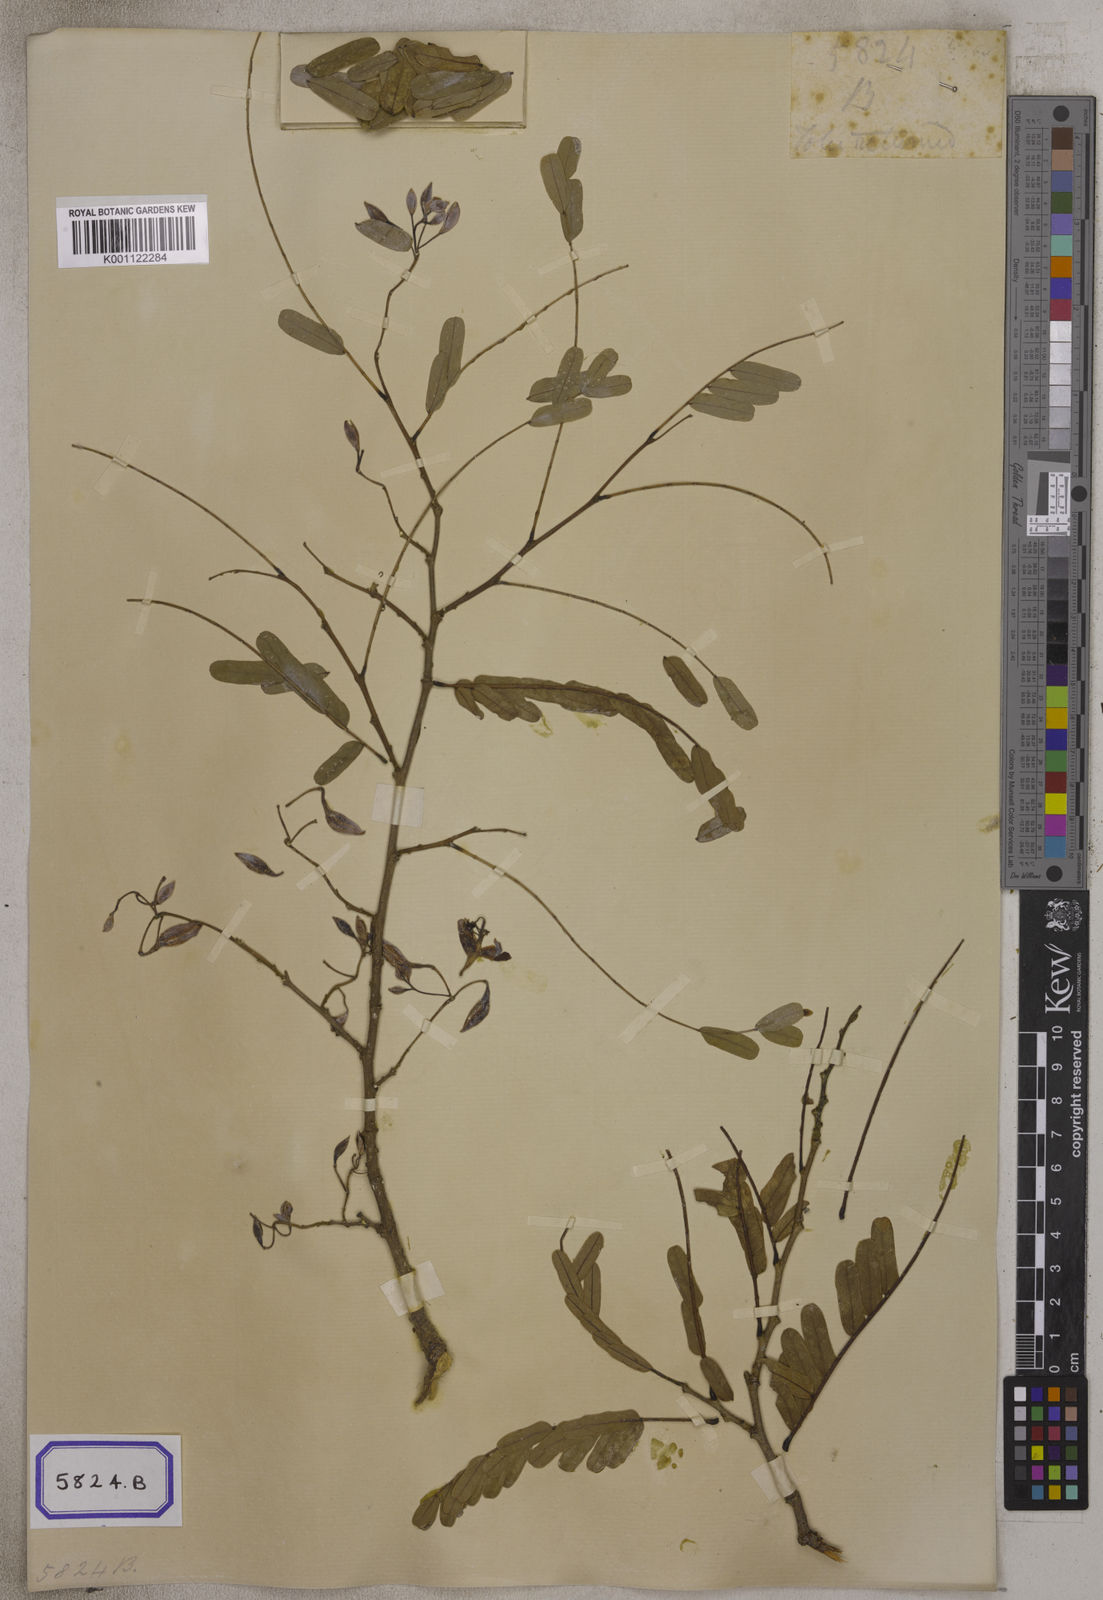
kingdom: Plantae
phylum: Tracheophyta
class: Magnoliopsida
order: Fabales
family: Fabaceae
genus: Tamarindus
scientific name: Tamarindus indica
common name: Tamarind
